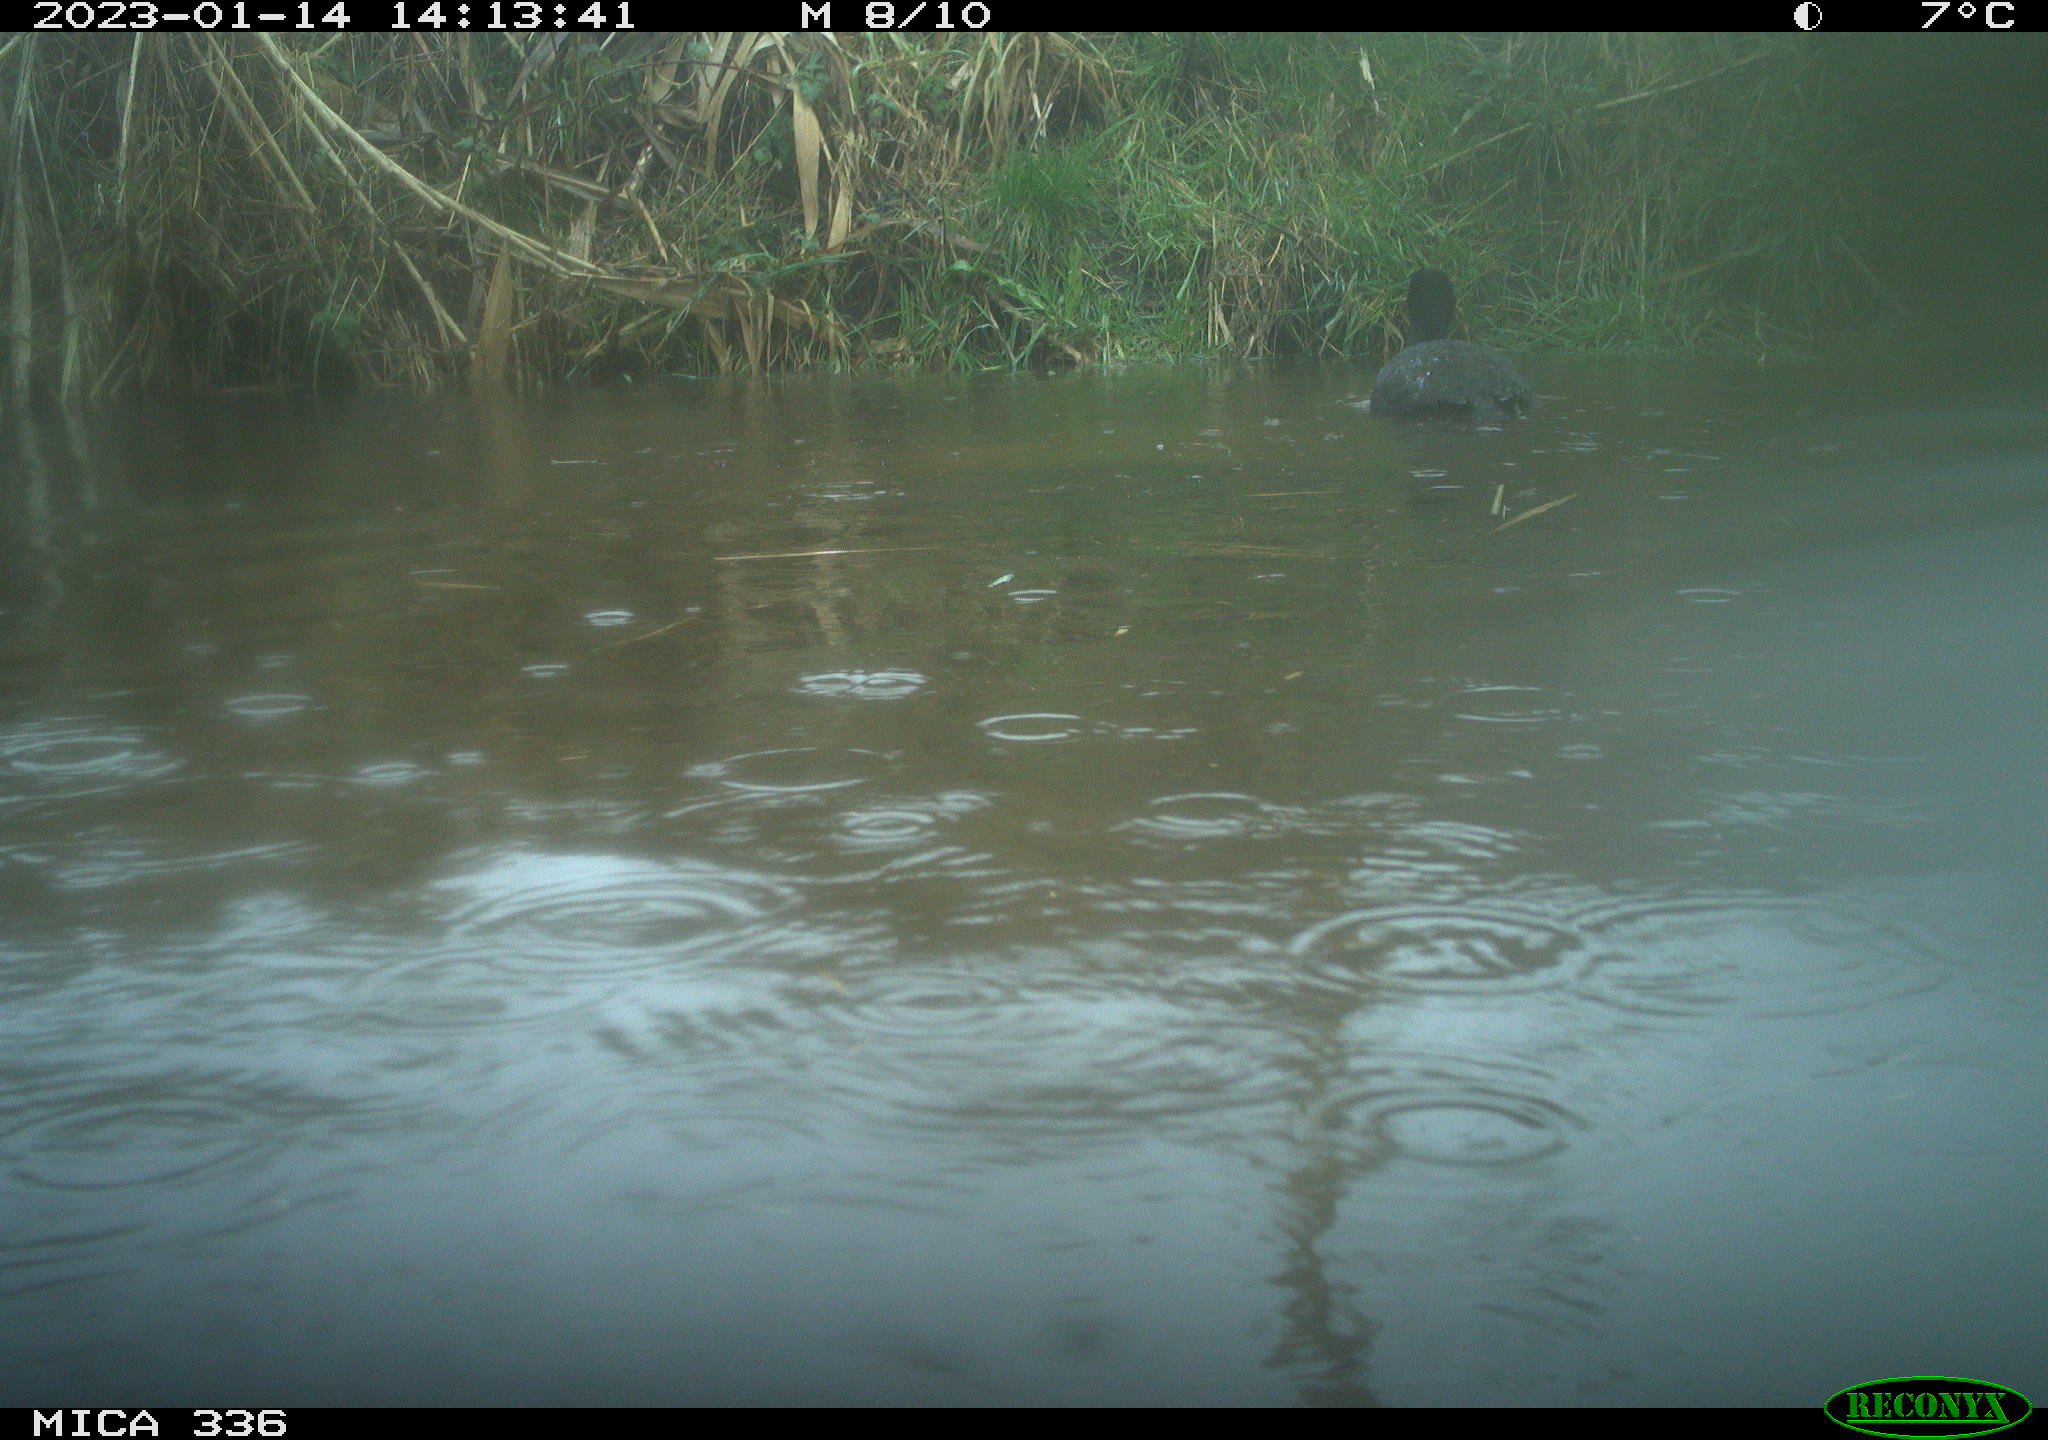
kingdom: Animalia
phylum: Chordata
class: Aves
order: Gruiformes
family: Rallidae
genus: Fulica
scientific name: Fulica atra
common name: Eurasian coot
